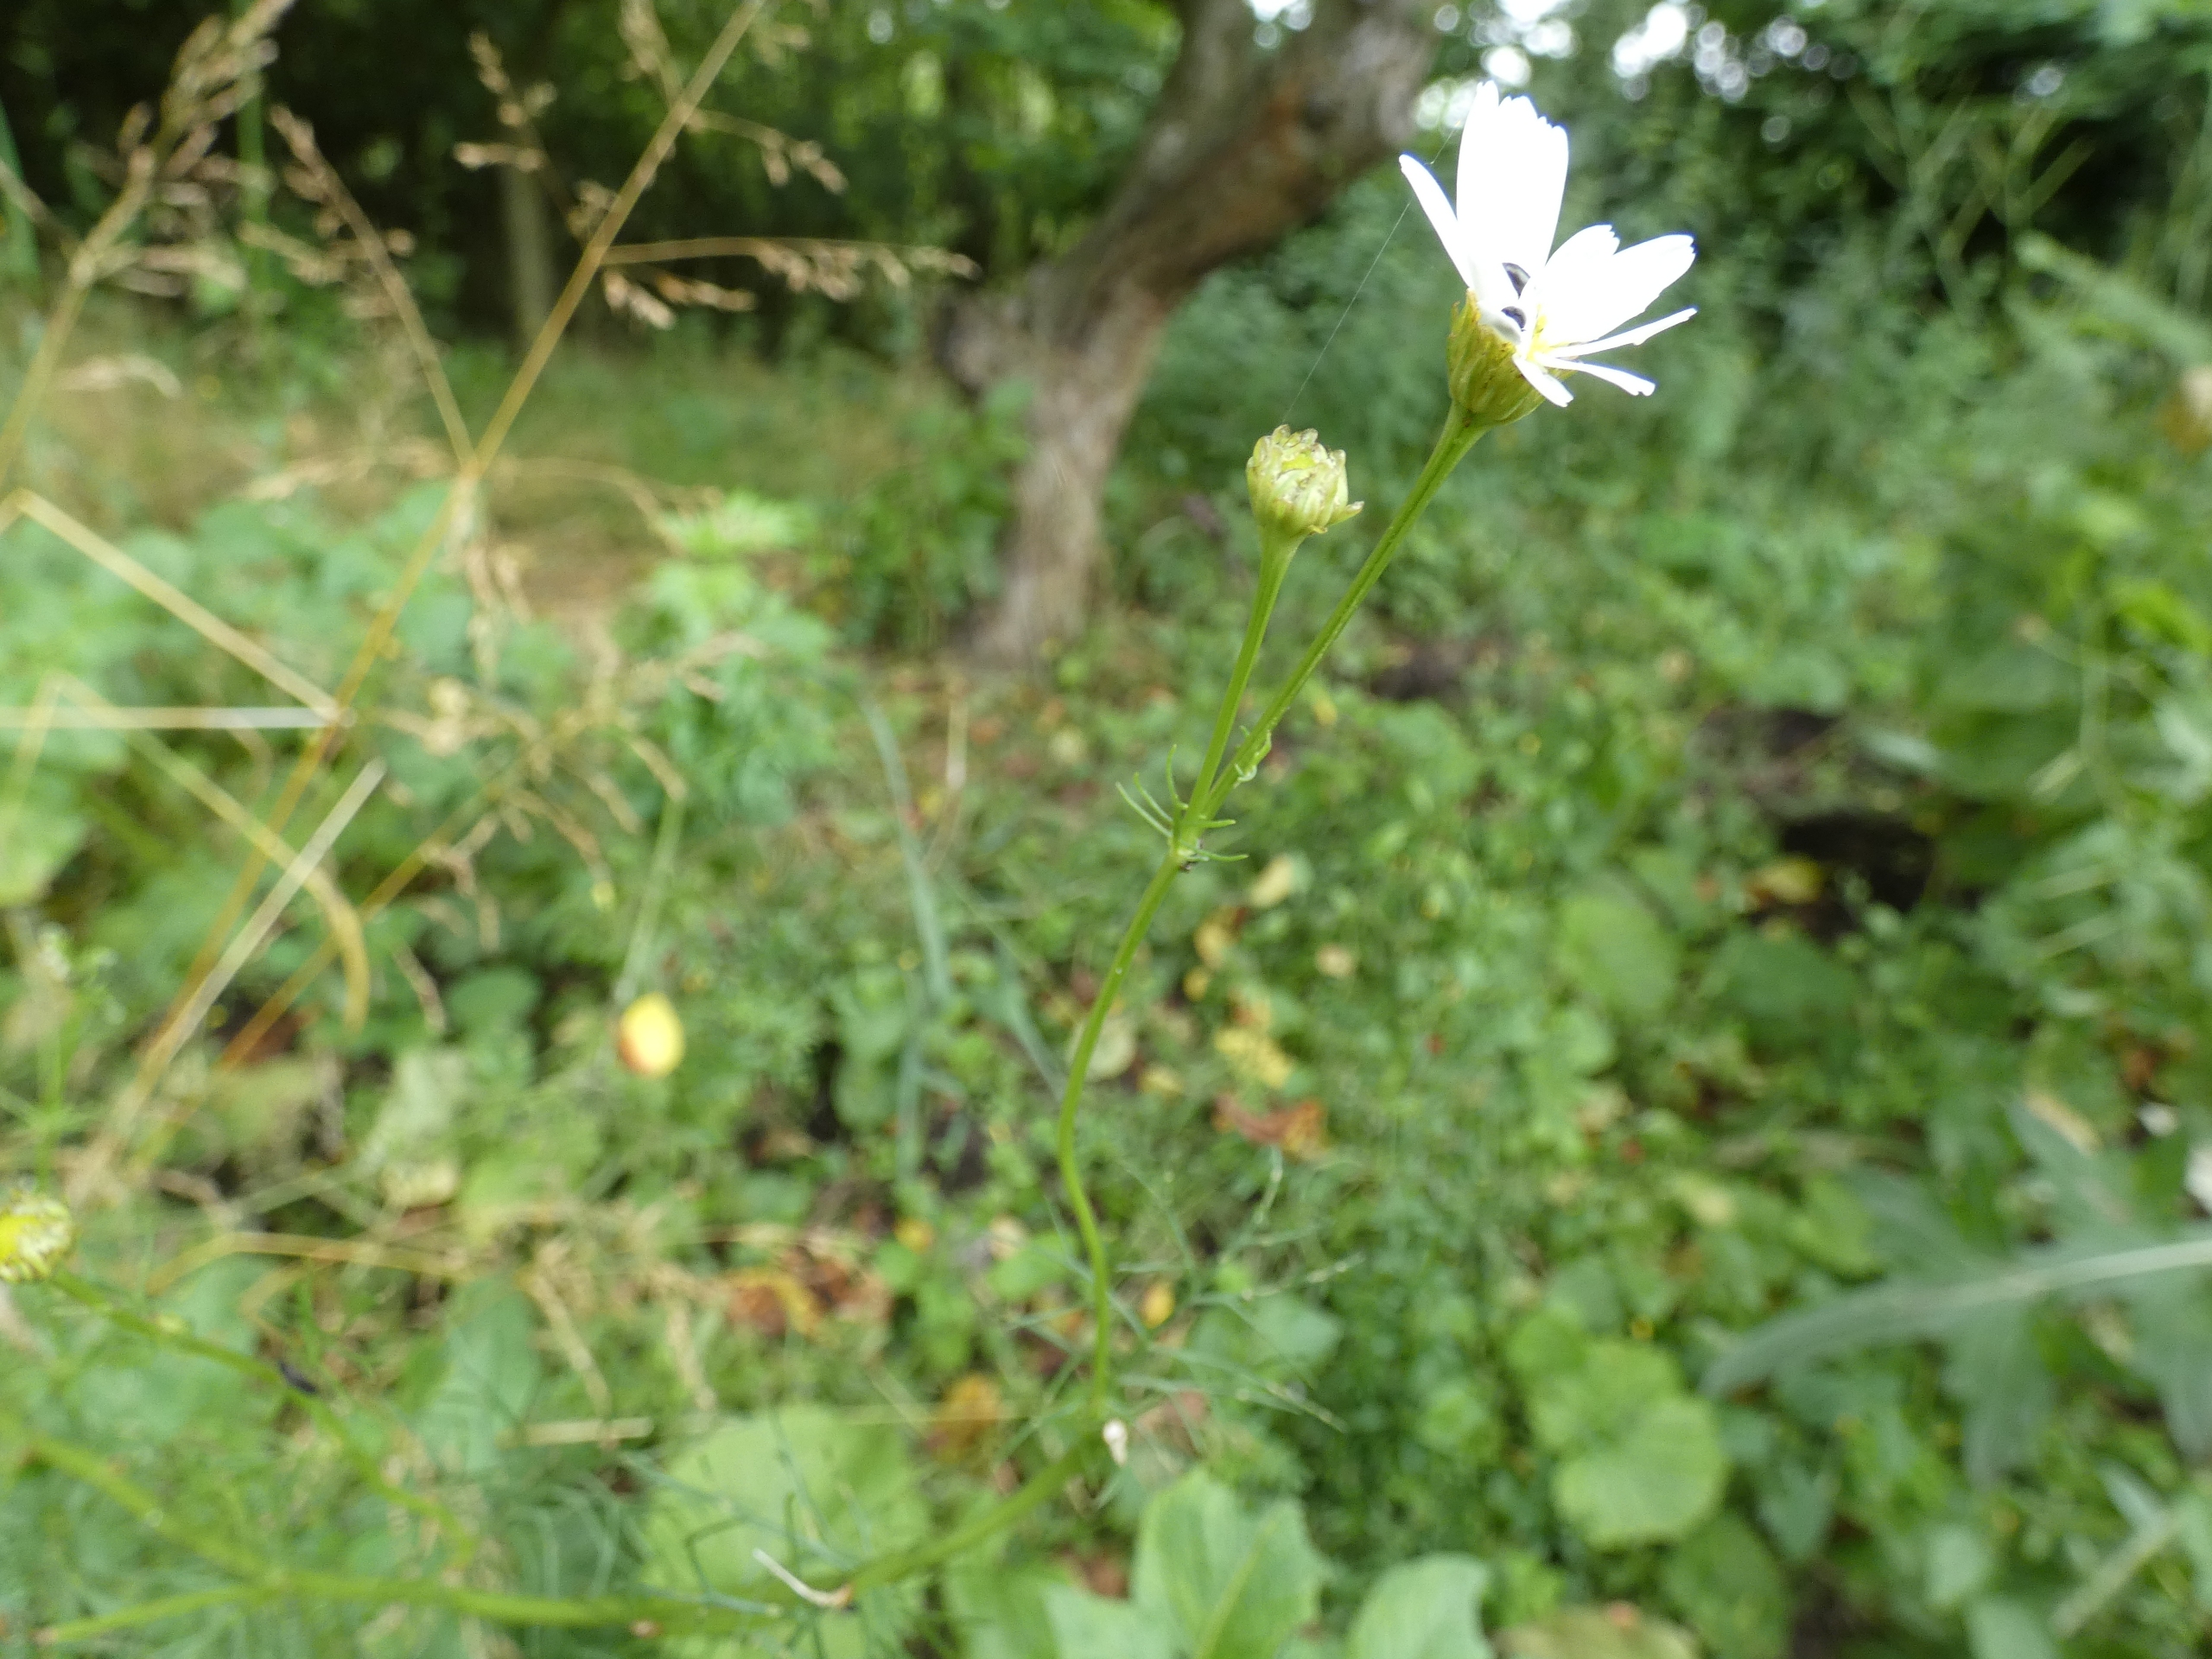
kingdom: Plantae
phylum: Tracheophyta
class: Magnoliopsida
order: Asterales
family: Asteraceae
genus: Tripleurospermum
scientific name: Tripleurospermum inodorum
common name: Lugtløs kamille
